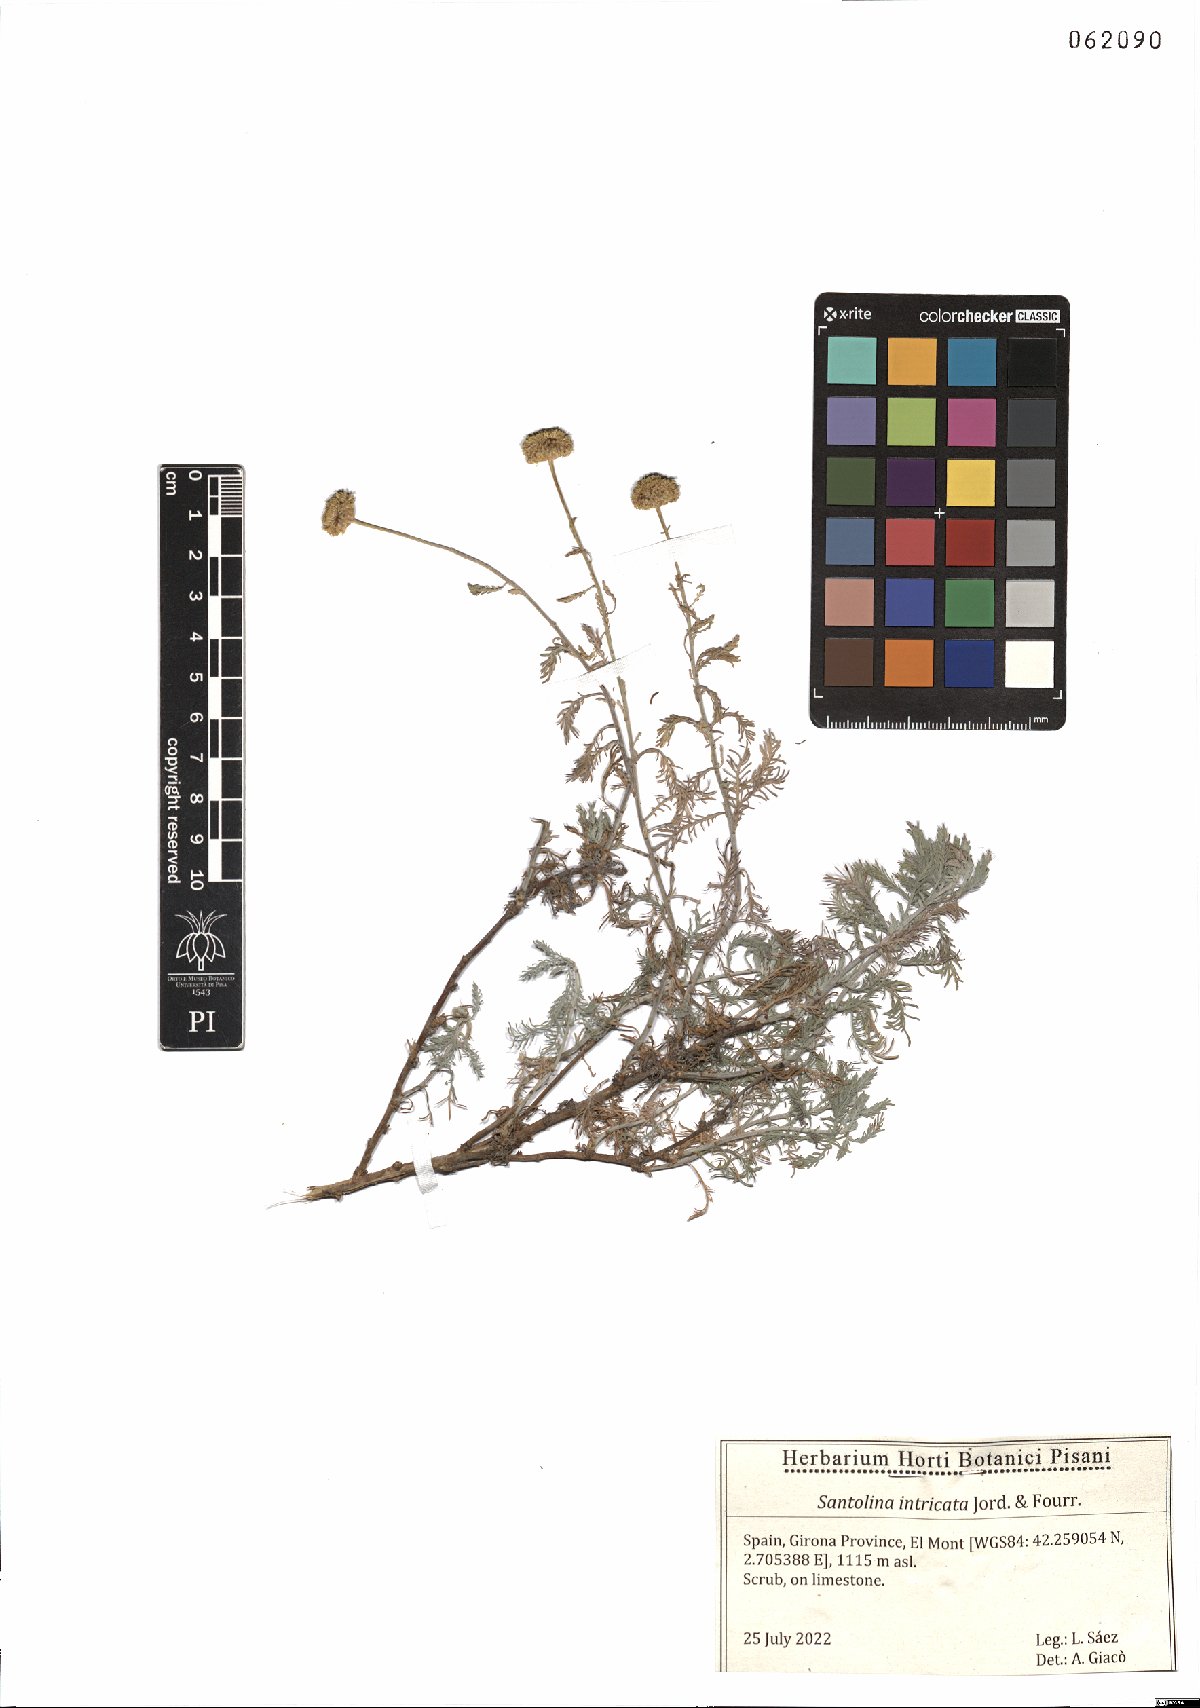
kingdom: Plantae
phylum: Tracheophyta
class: Magnoliopsida
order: Asterales
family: Asteraceae
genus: Santolina
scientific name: Santolina benthamiana
